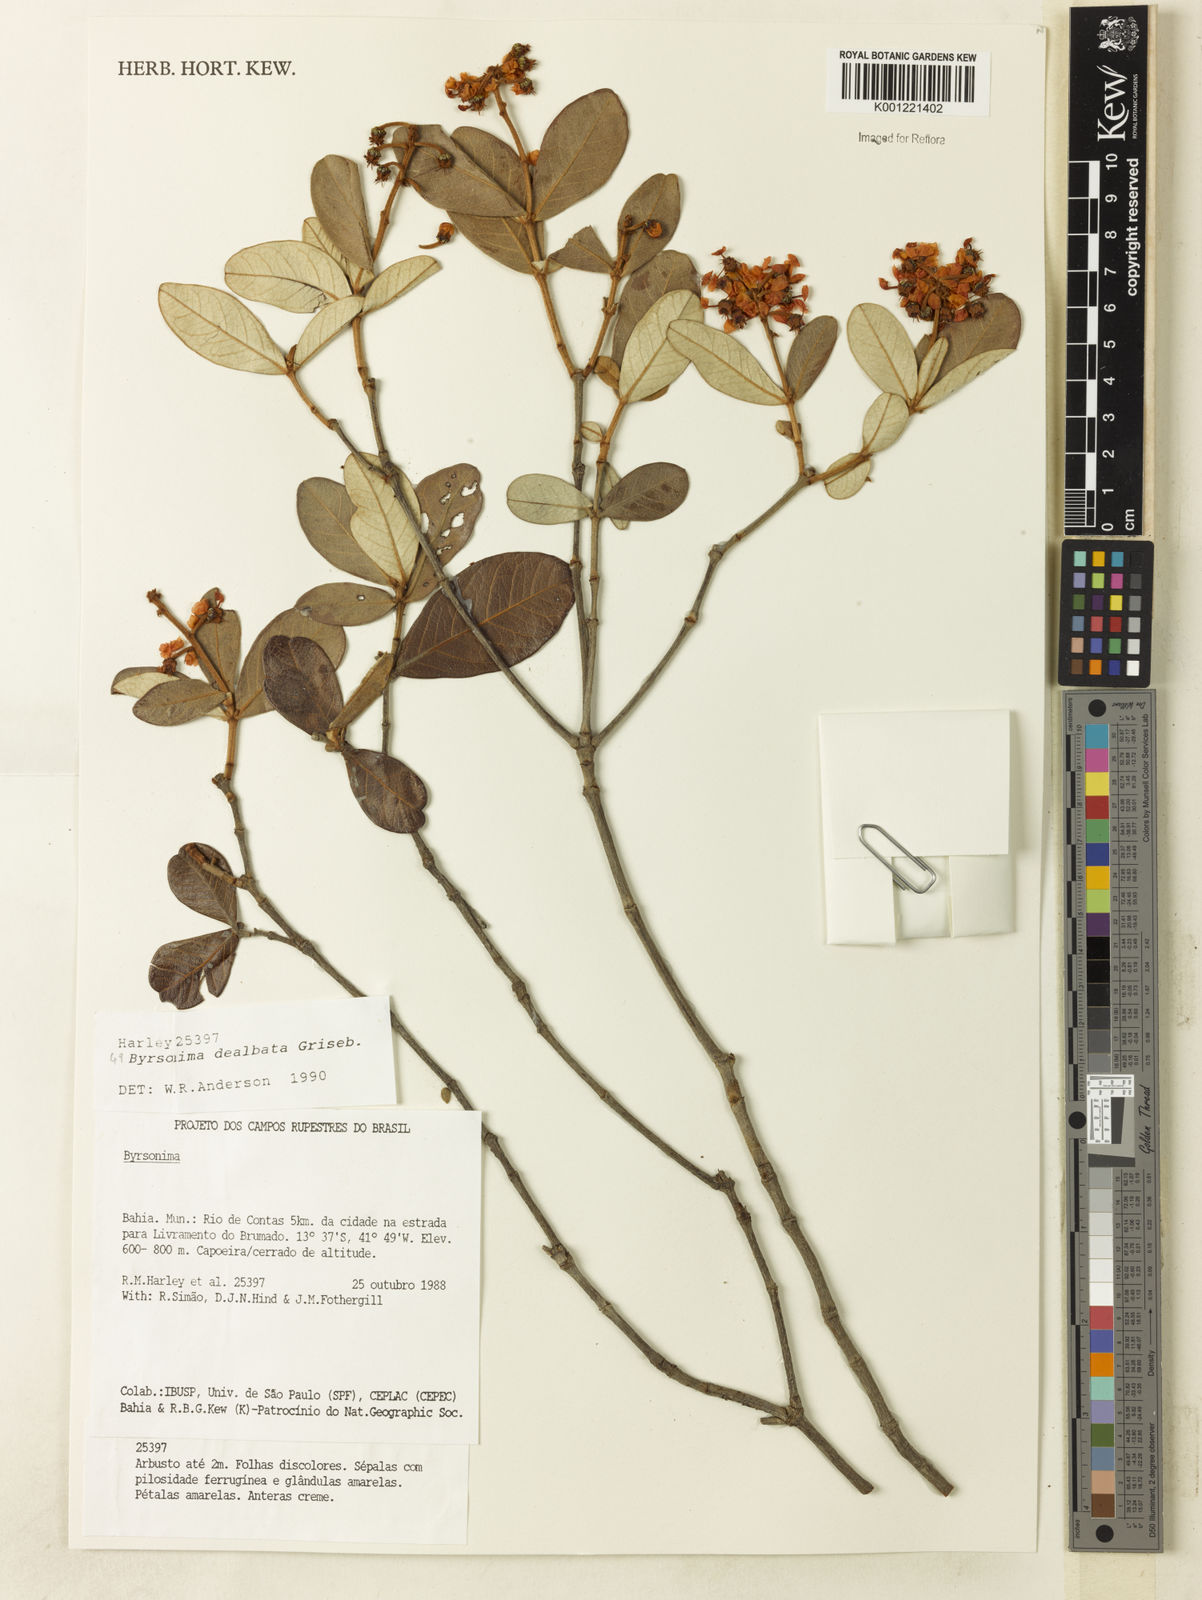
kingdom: Plantae
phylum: Tracheophyta
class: Magnoliopsida
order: Malpighiales
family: Malpighiaceae
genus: Byrsonima
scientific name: Byrsonima dealbata
